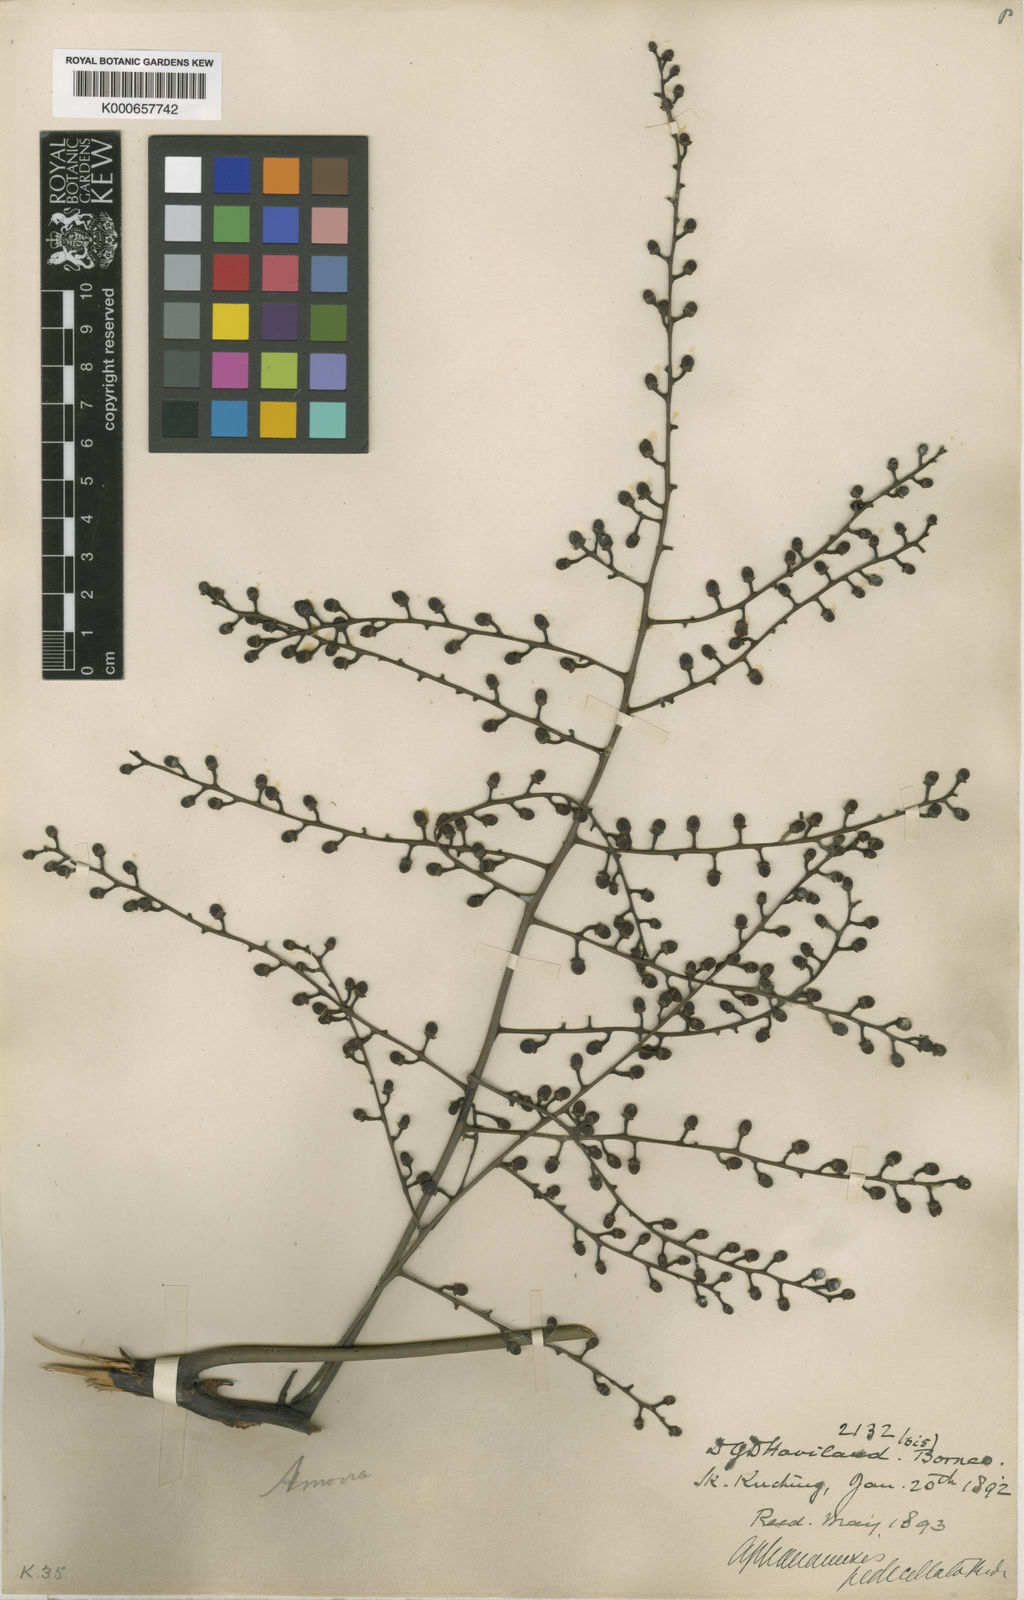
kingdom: Plantae
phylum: Tracheophyta
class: Magnoliopsida
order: Sapindales
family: Meliaceae
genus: Aphanamixis
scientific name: Aphanamixis borneensis
